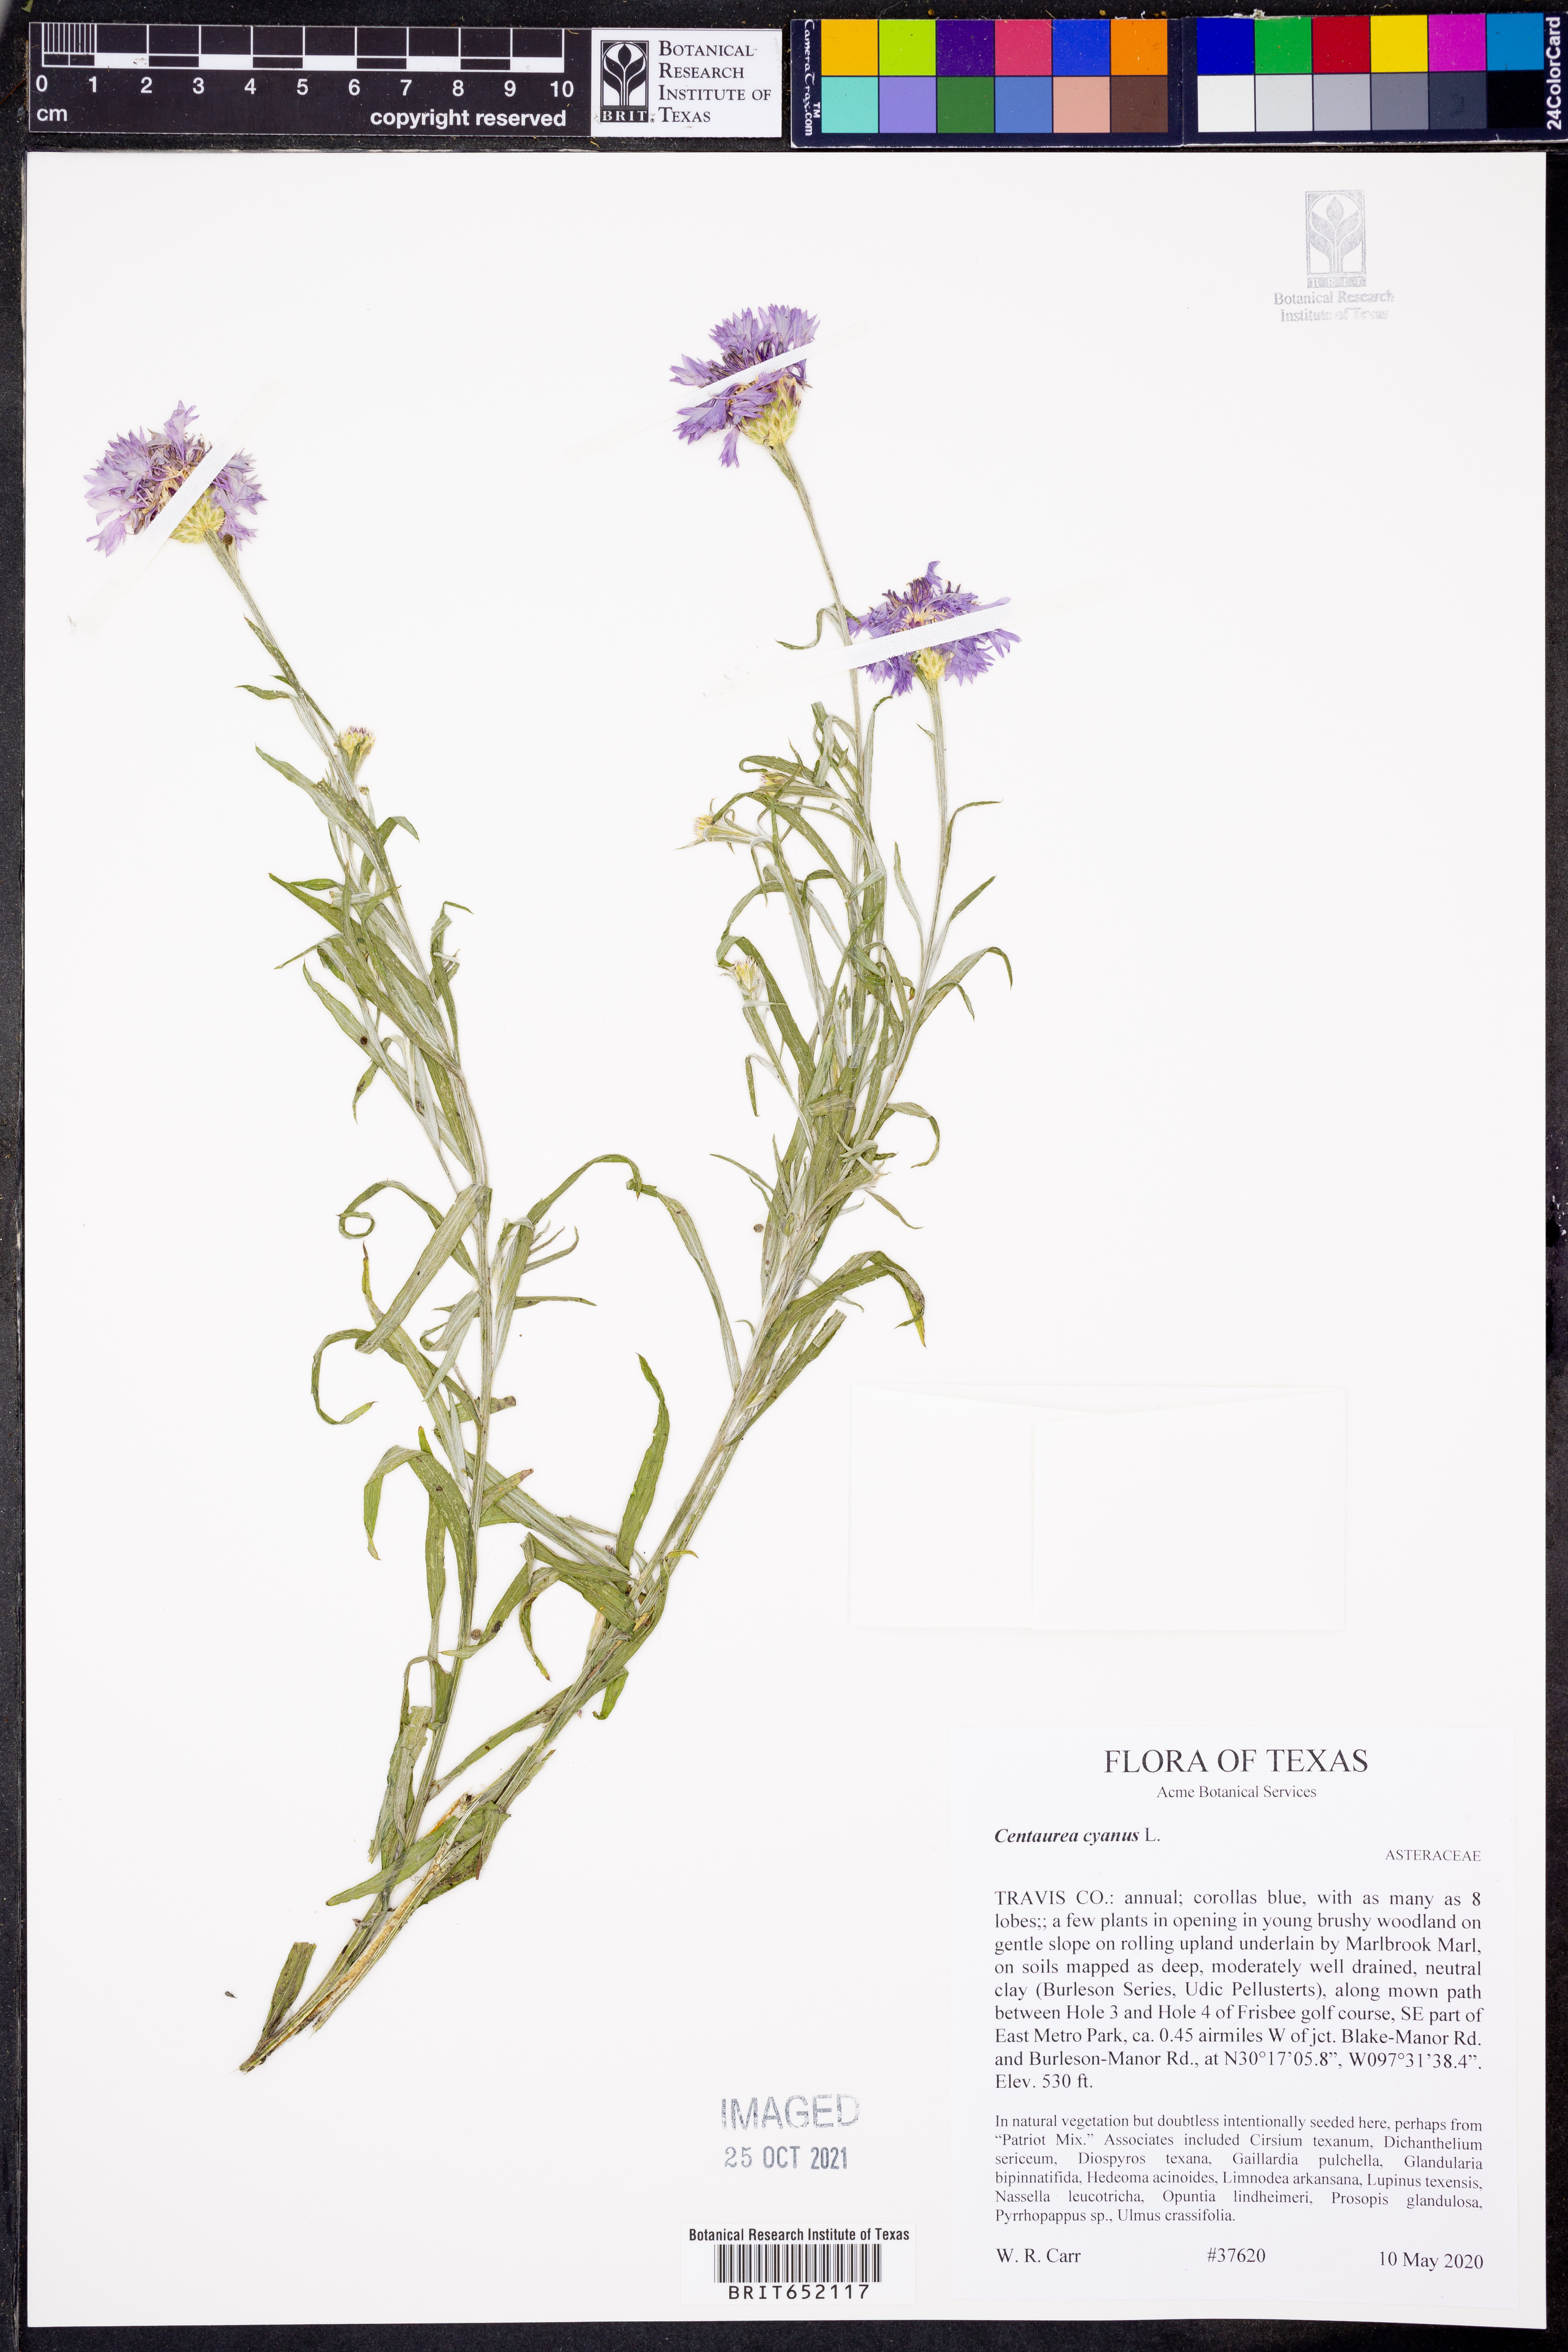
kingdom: Plantae
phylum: Tracheophyta
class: Magnoliopsida
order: Asterales
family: Asteraceae
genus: Centaurea
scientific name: Centaurea cyanus
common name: Cornflower
